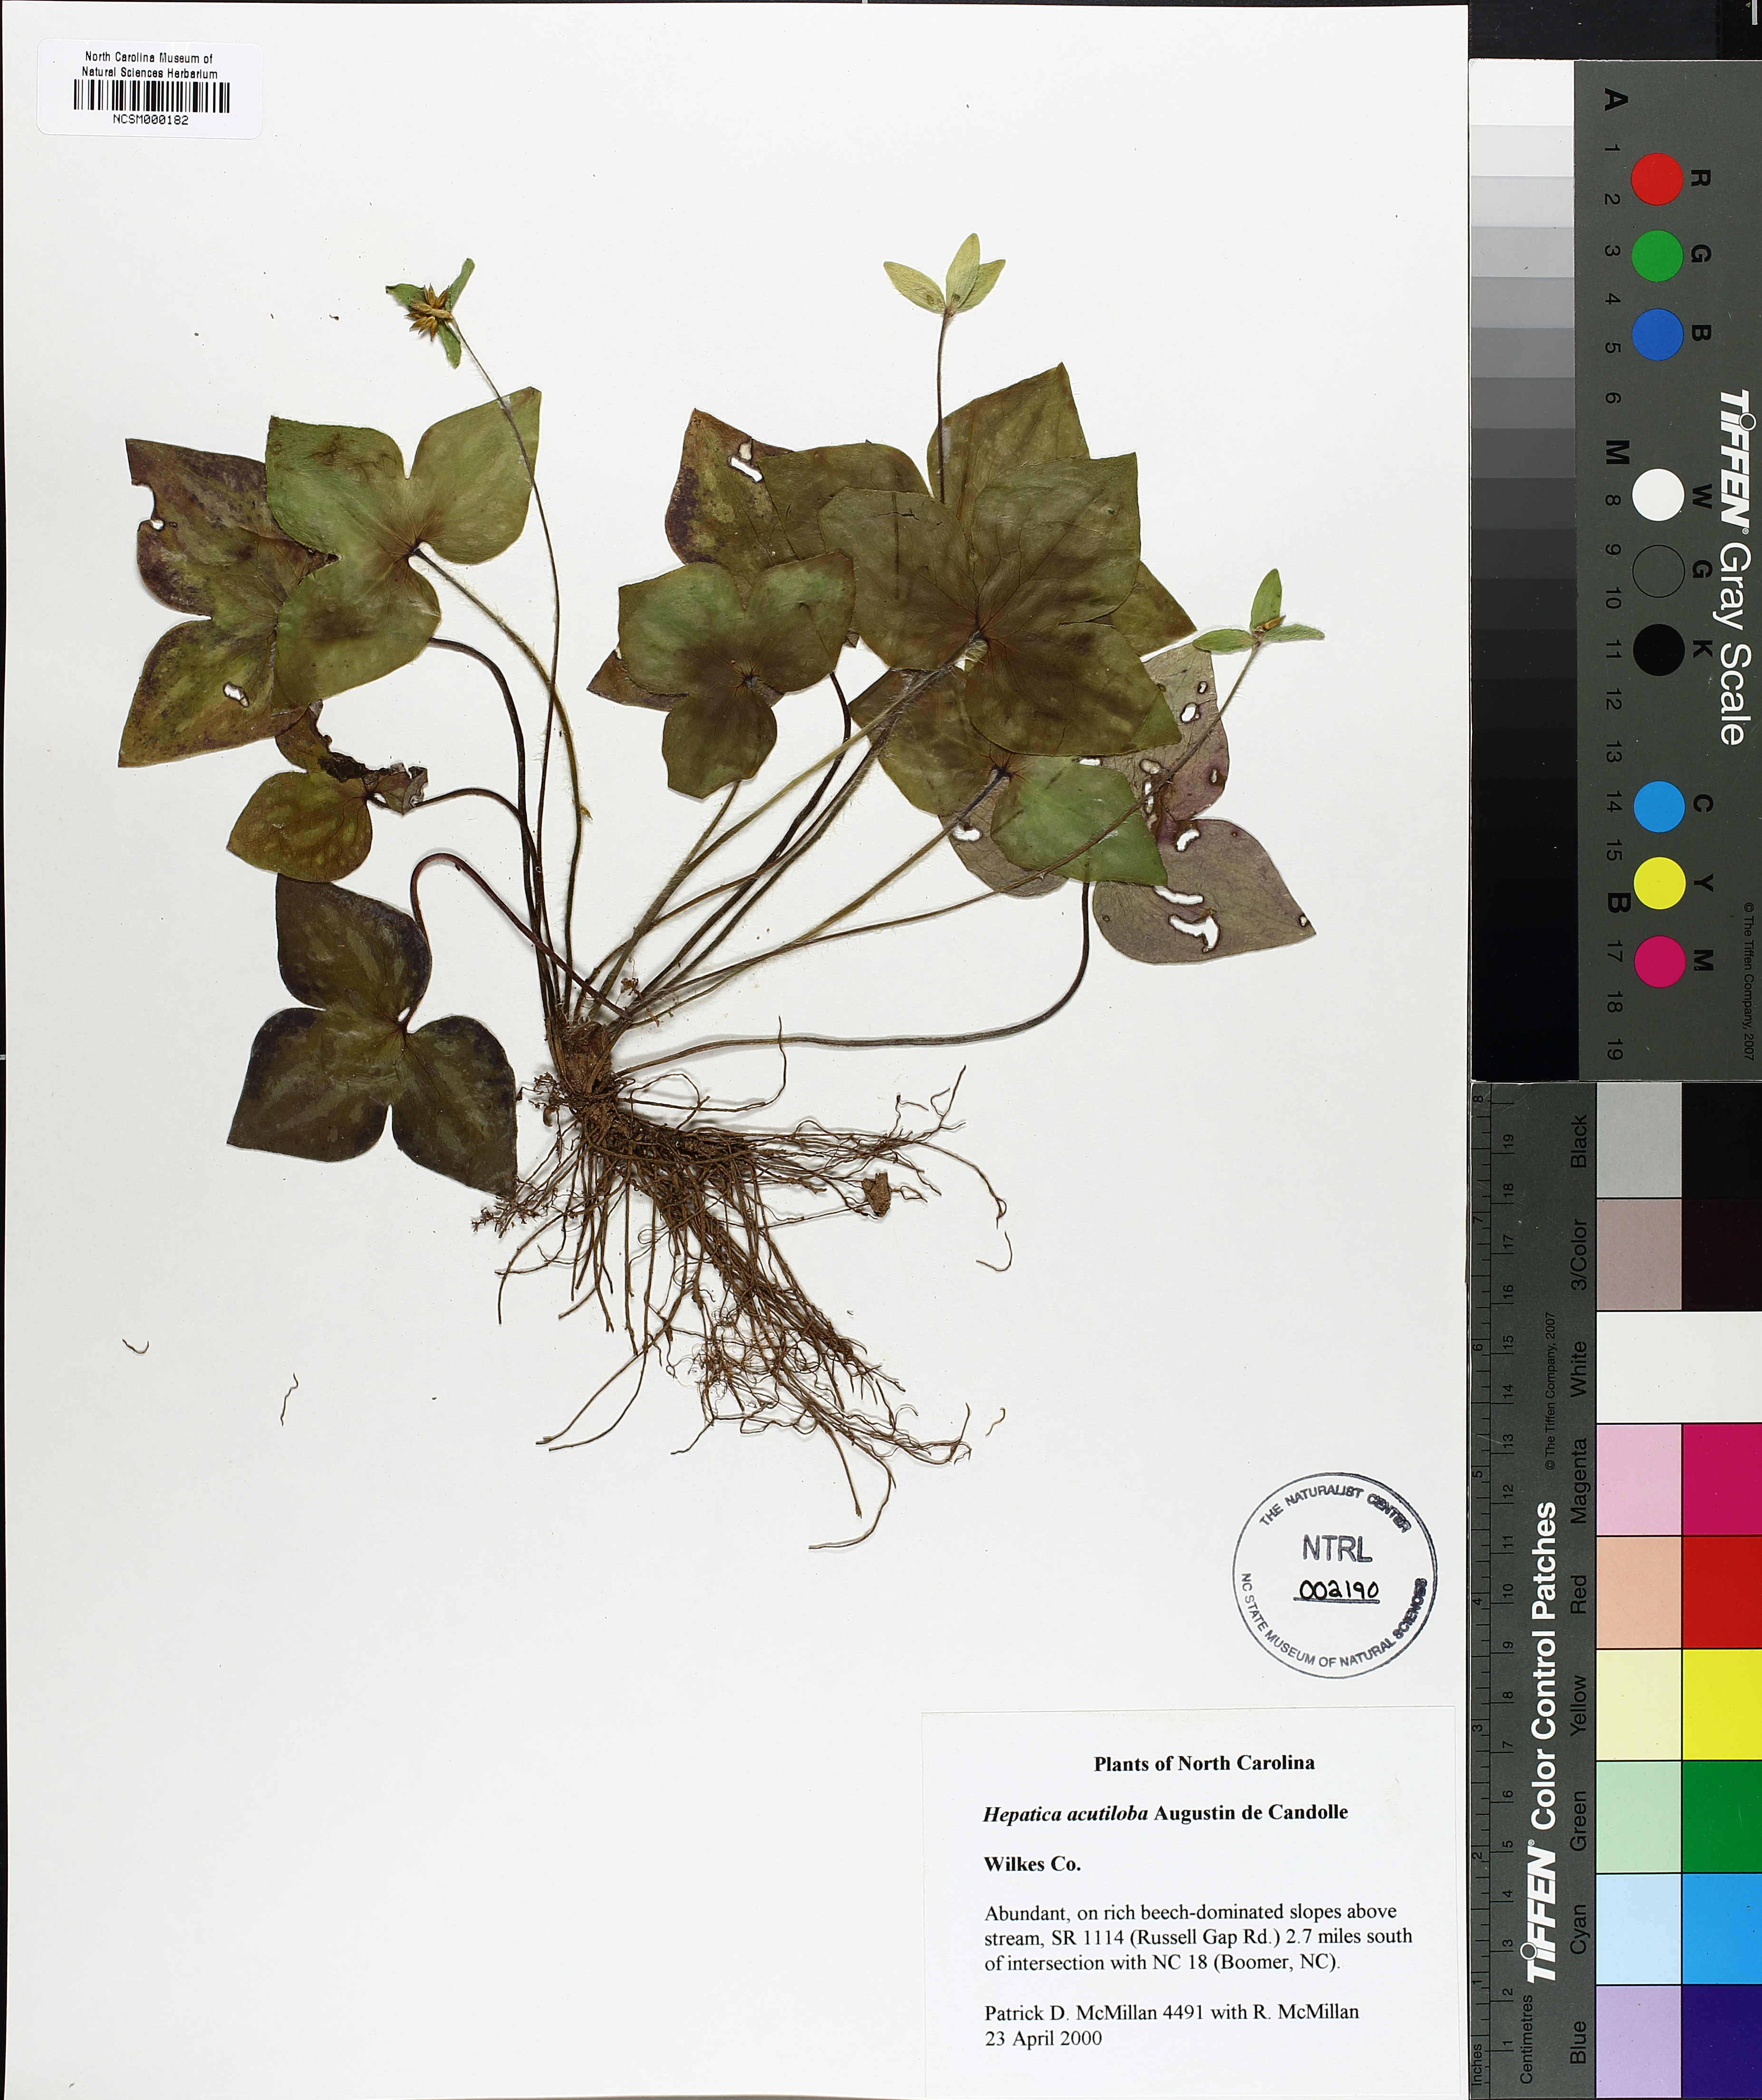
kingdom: Plantae
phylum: Tracheophyta
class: Magnoliopsida
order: Ranunculales
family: Ranunculaceae
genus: Hepatica
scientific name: Hepatica acutiloba
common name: Sharp-lobed hepatica
